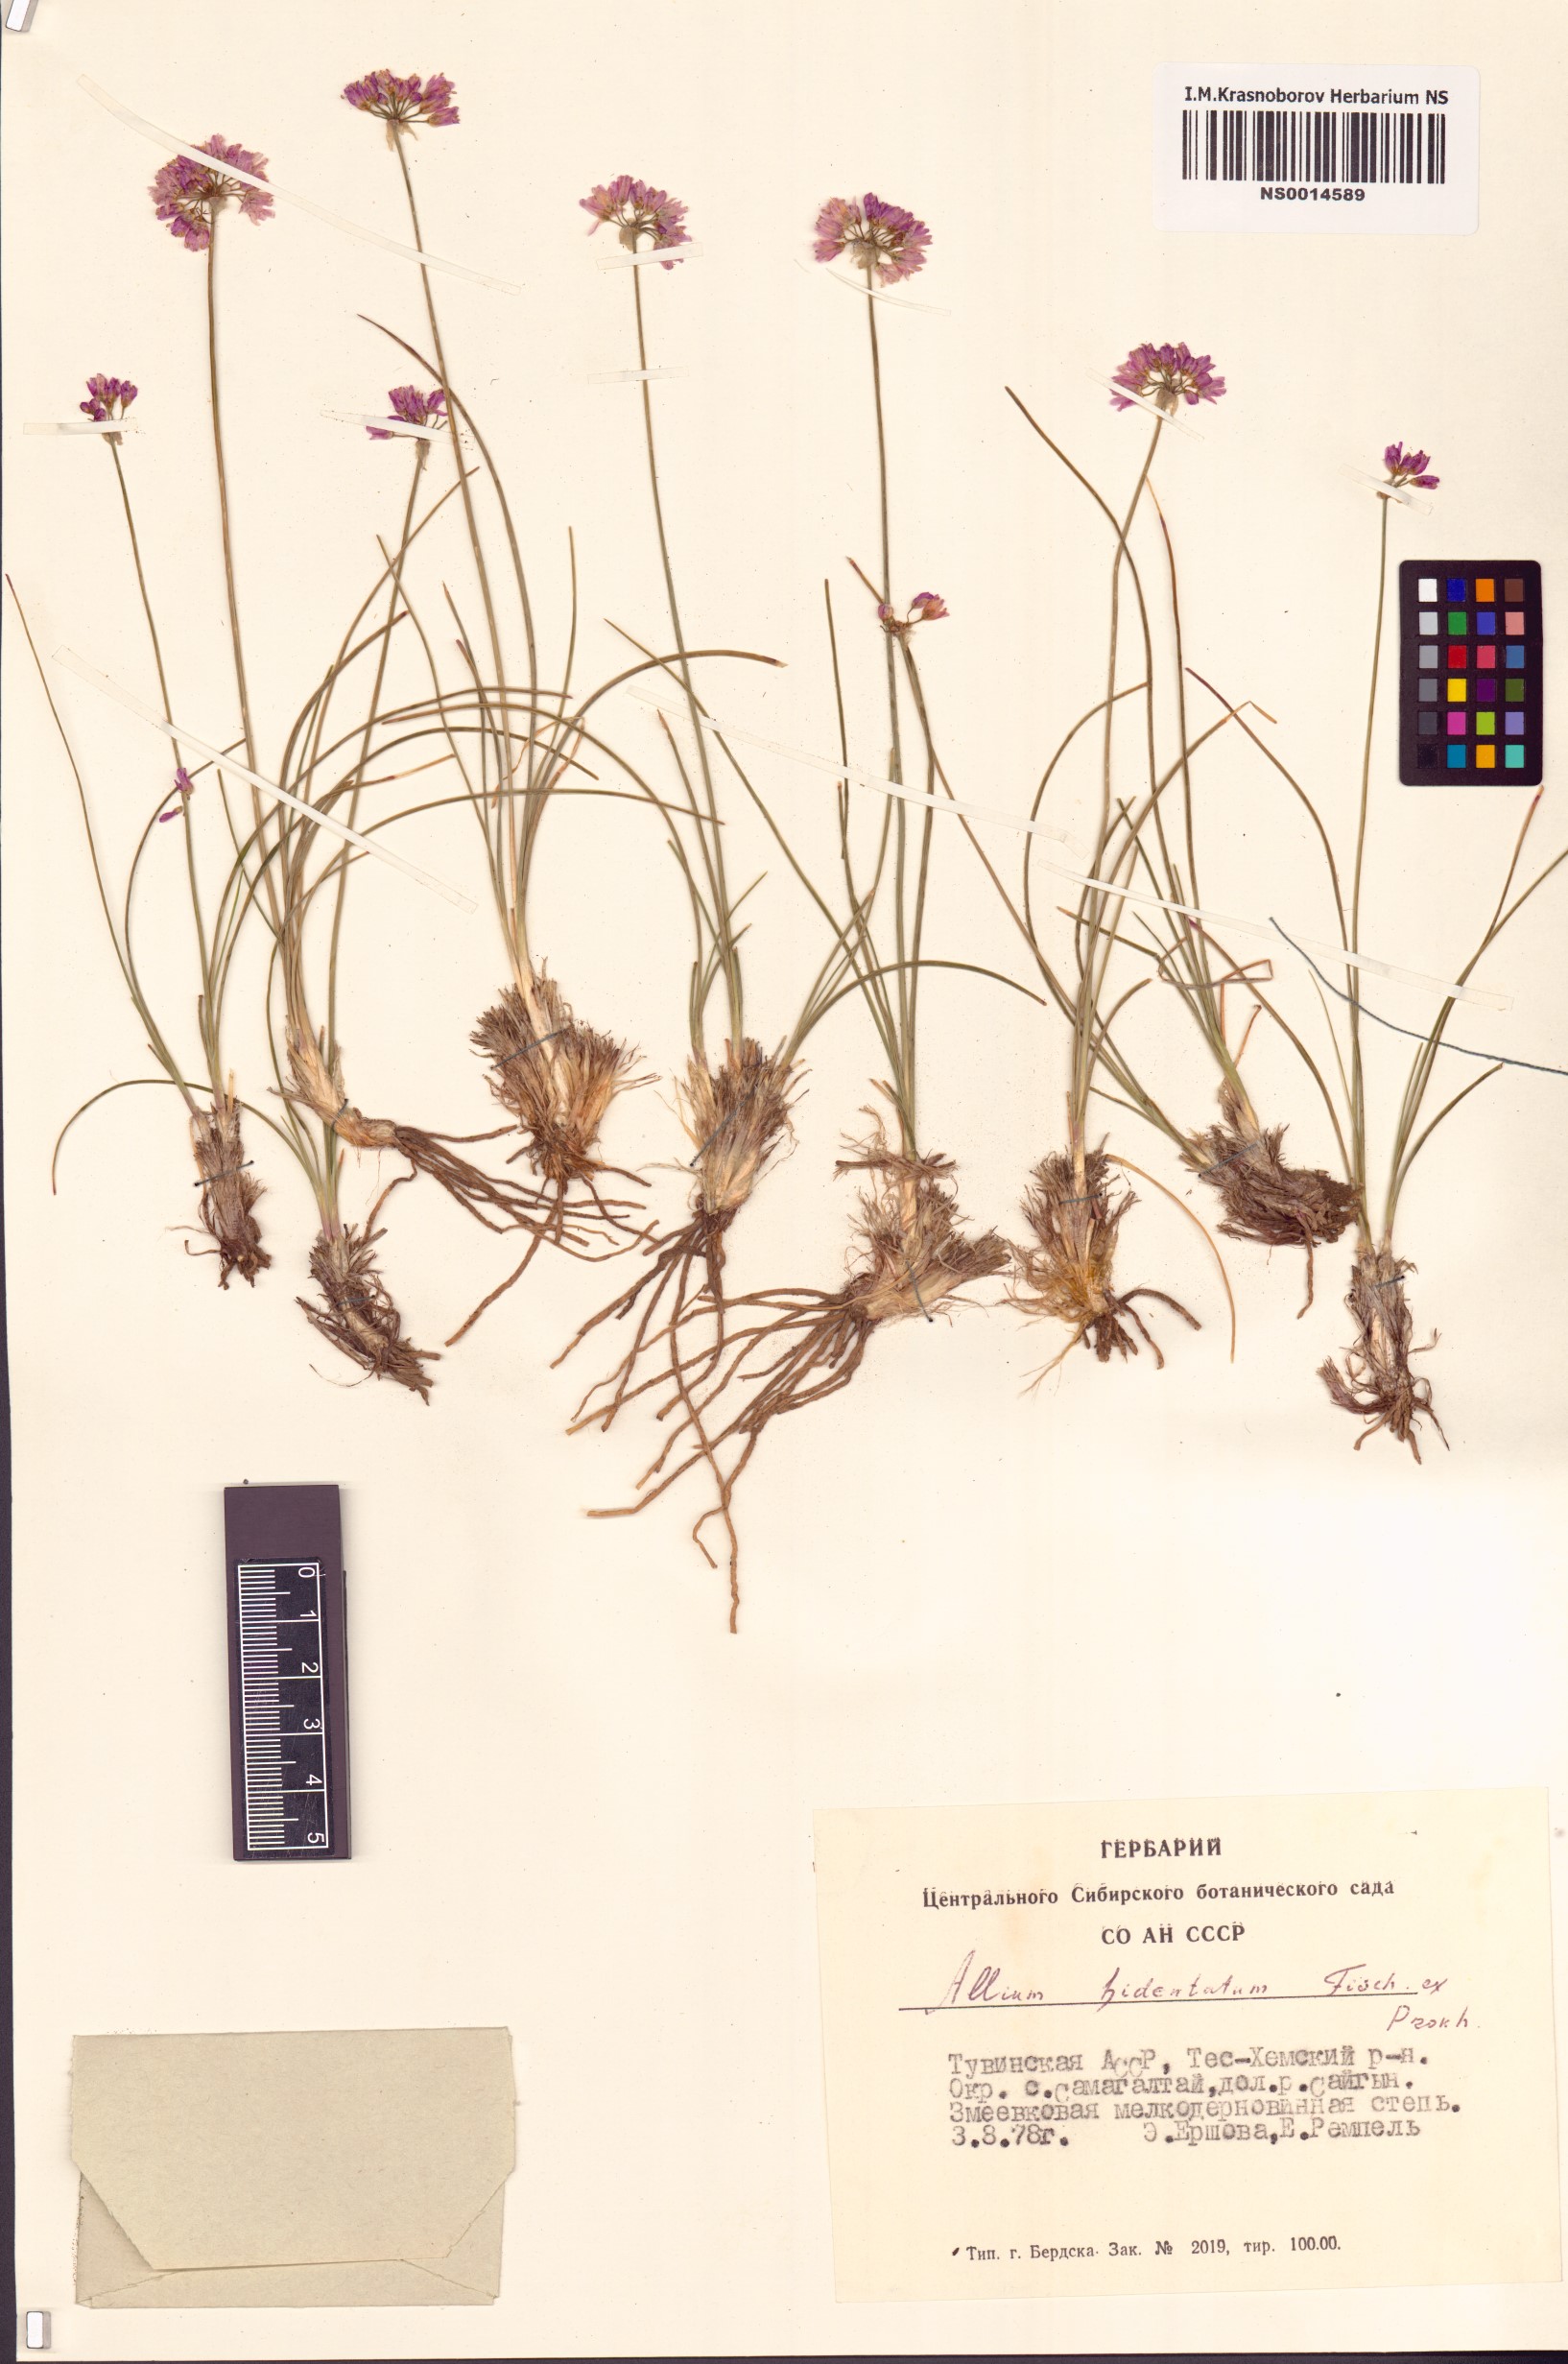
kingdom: Plantae
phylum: Tracheophyta
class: Liliopsida
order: Asparagales
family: Amaryllidaceae
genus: Allium
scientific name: Allium bidentatum
